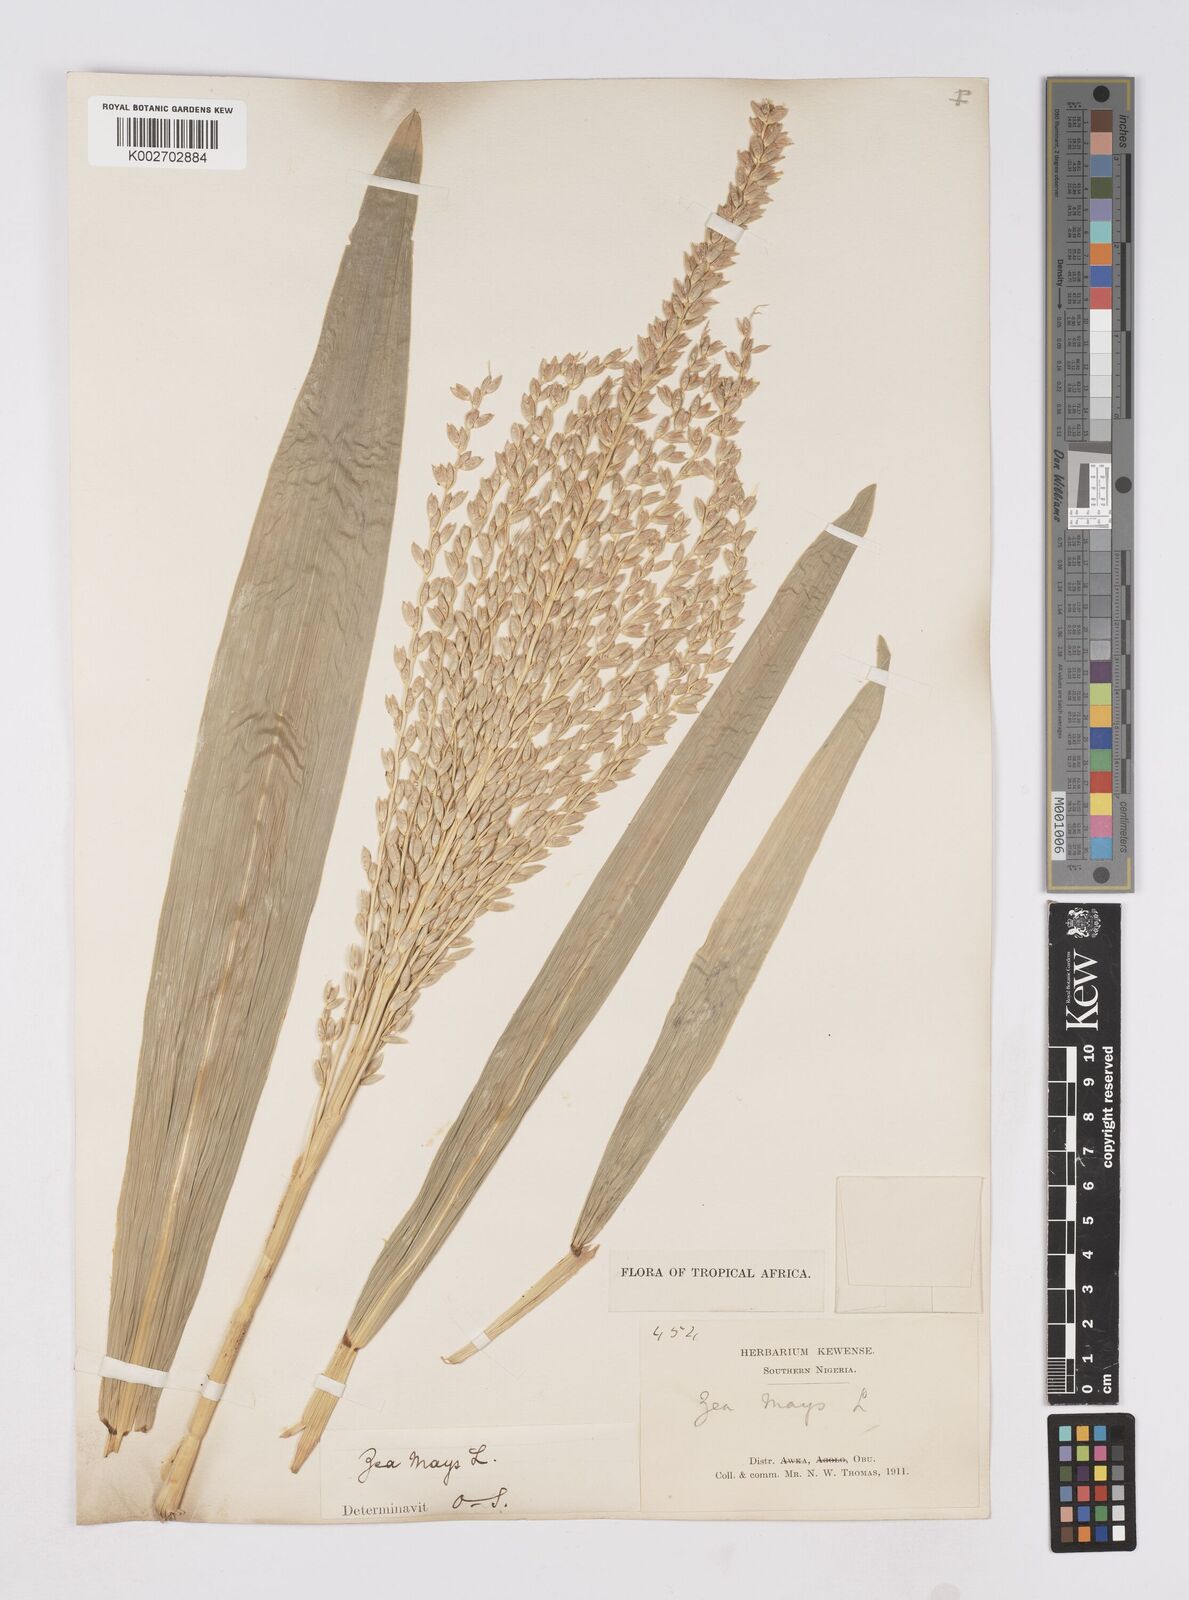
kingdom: Plantae
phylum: Tracheophyta
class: Liliopsida
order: Poales
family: Poaceae
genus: Zea
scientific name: Zea mays
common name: Maize
